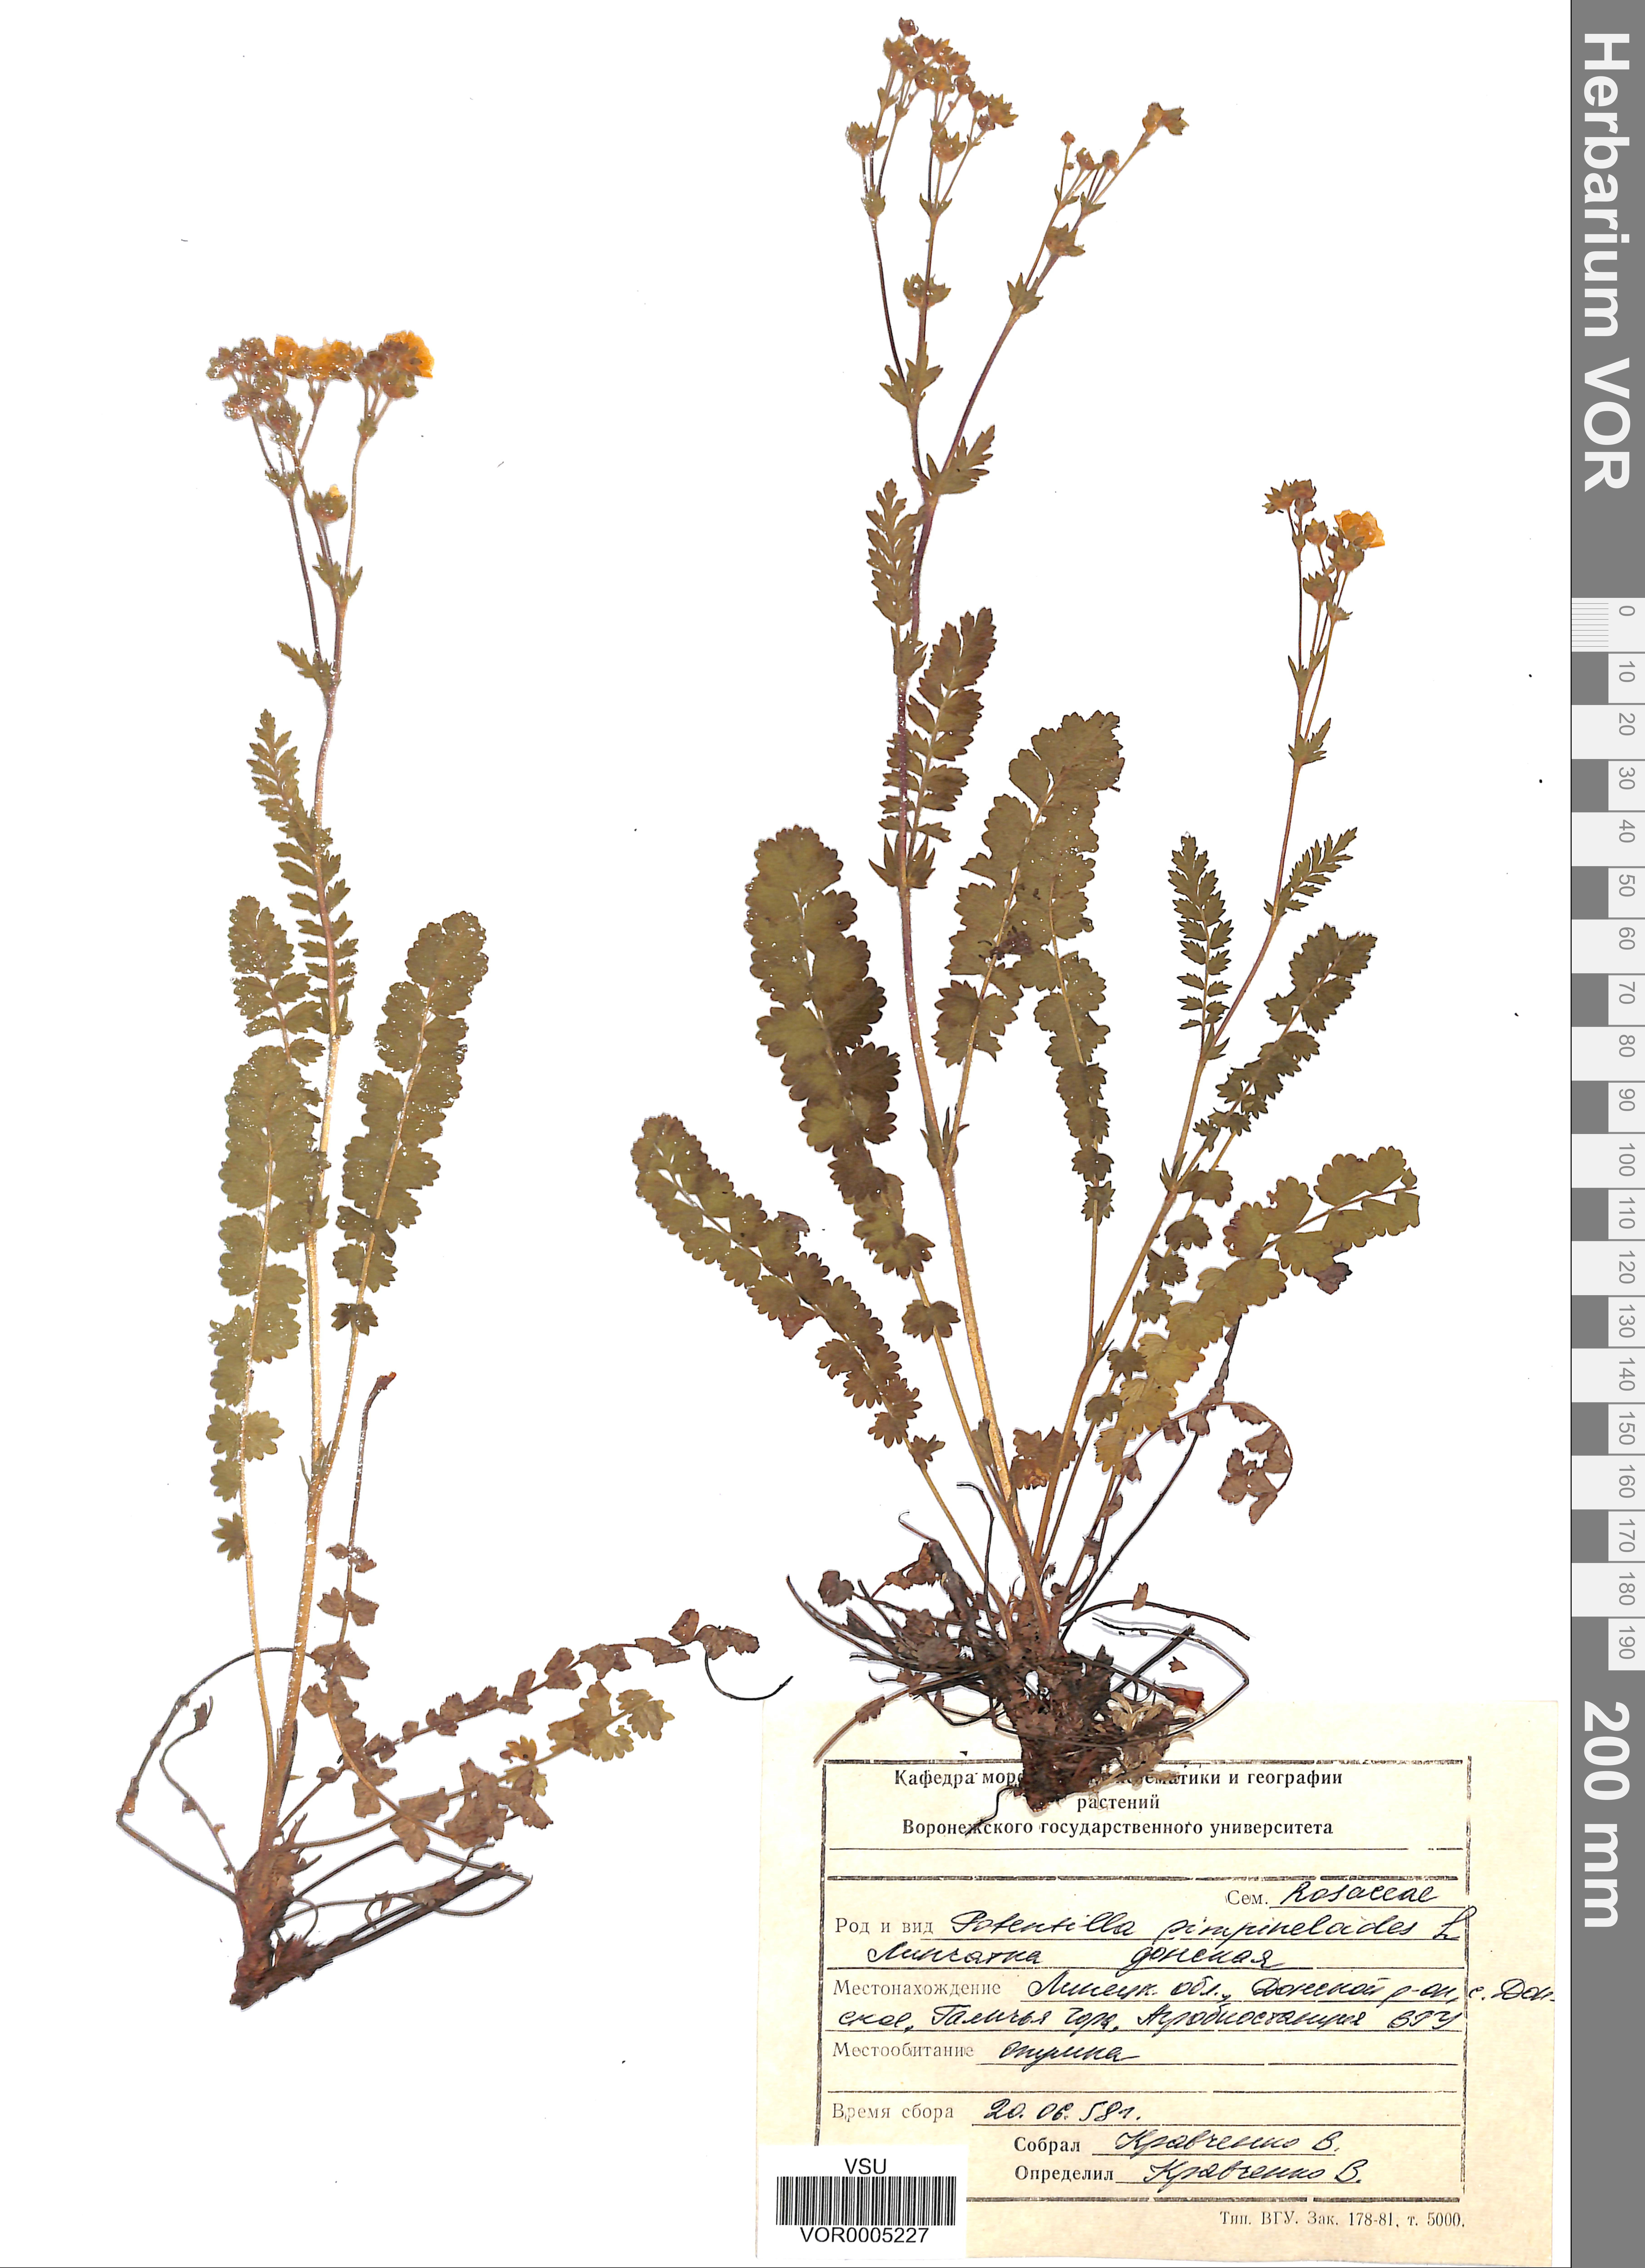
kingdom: Plantae
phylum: Tracheophyta
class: Magnoliopsida
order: Rosales
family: Rosaceae
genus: Potentilla
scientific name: Potentilla pimpinelloides
